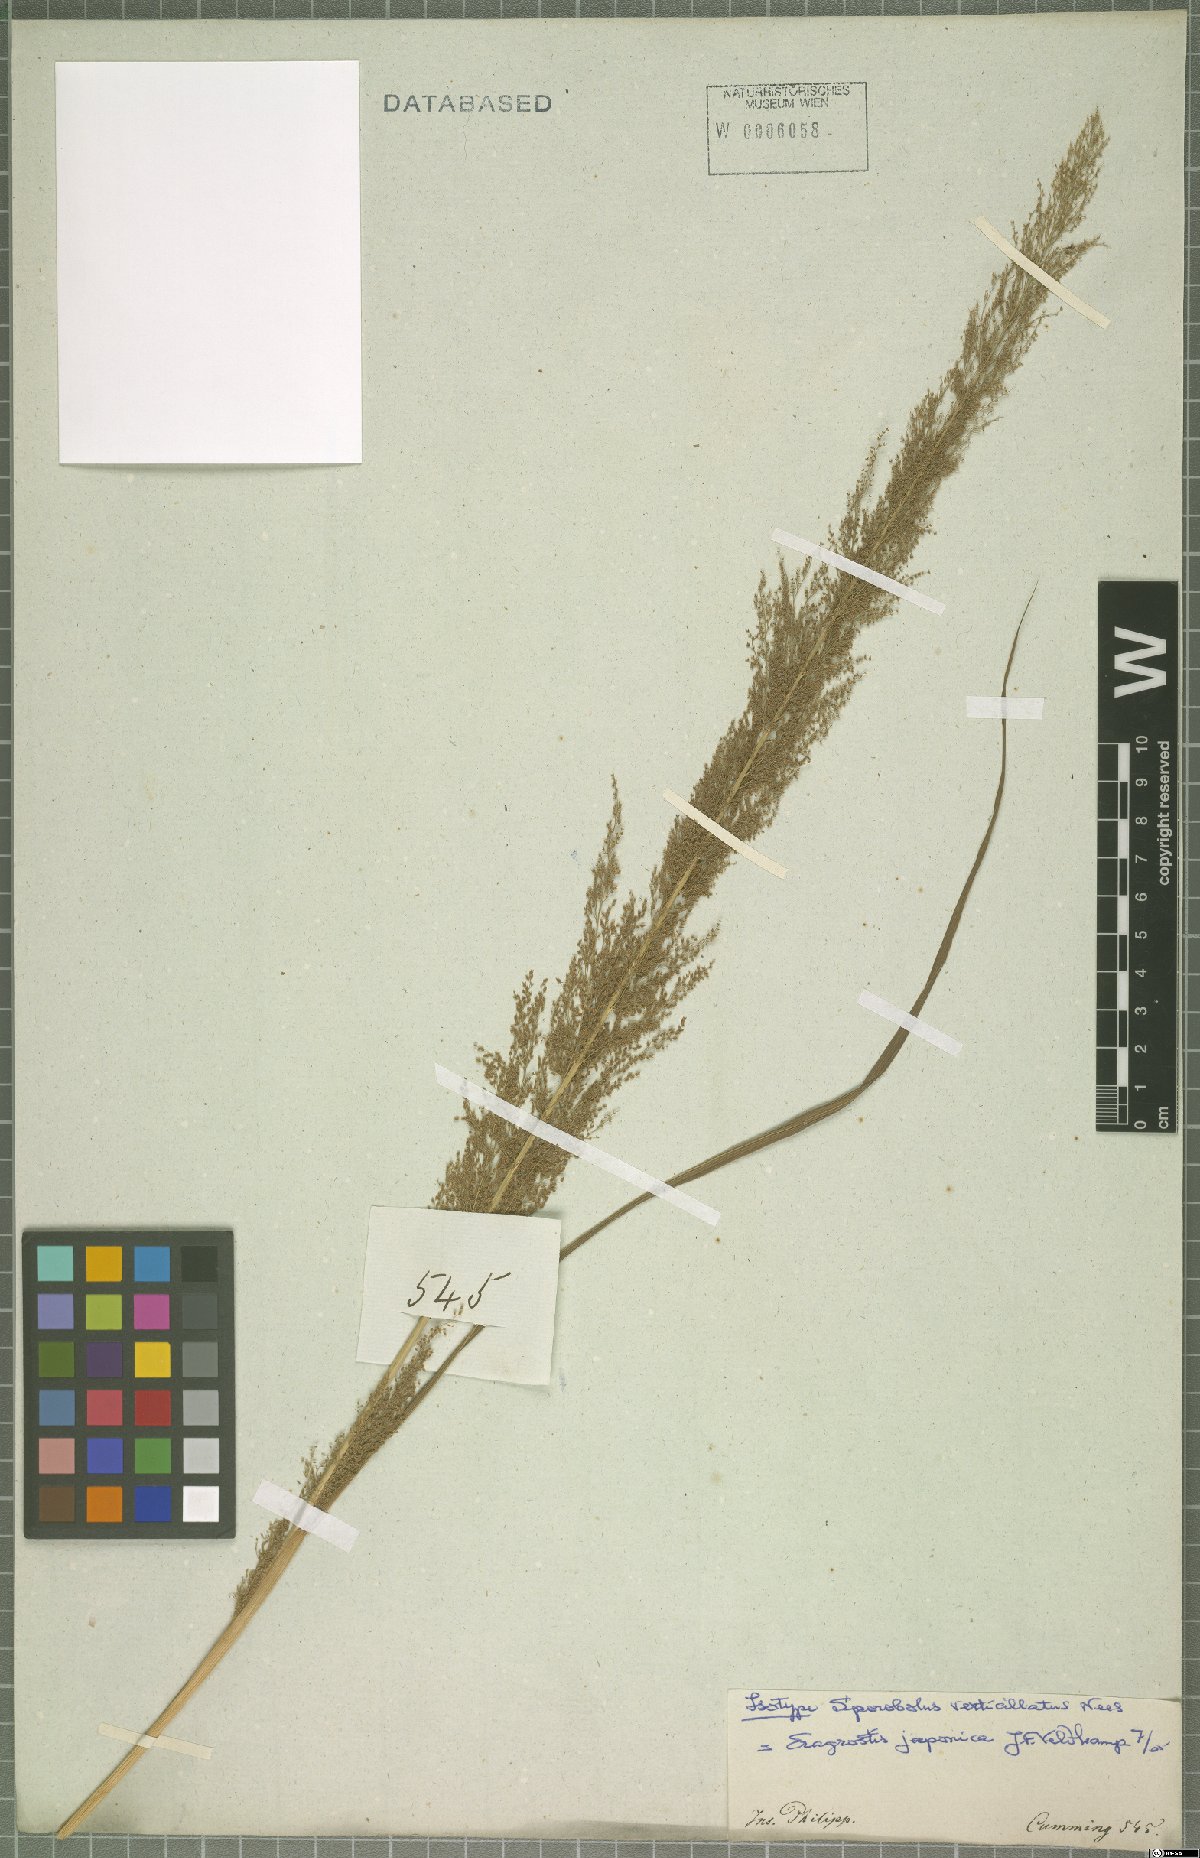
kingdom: Plantae
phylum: Tracheophyta
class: Liliopsida
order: Poales
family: Poaceae
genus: Eragrostis
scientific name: Eragrostis japonica
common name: Pond lovegrass
